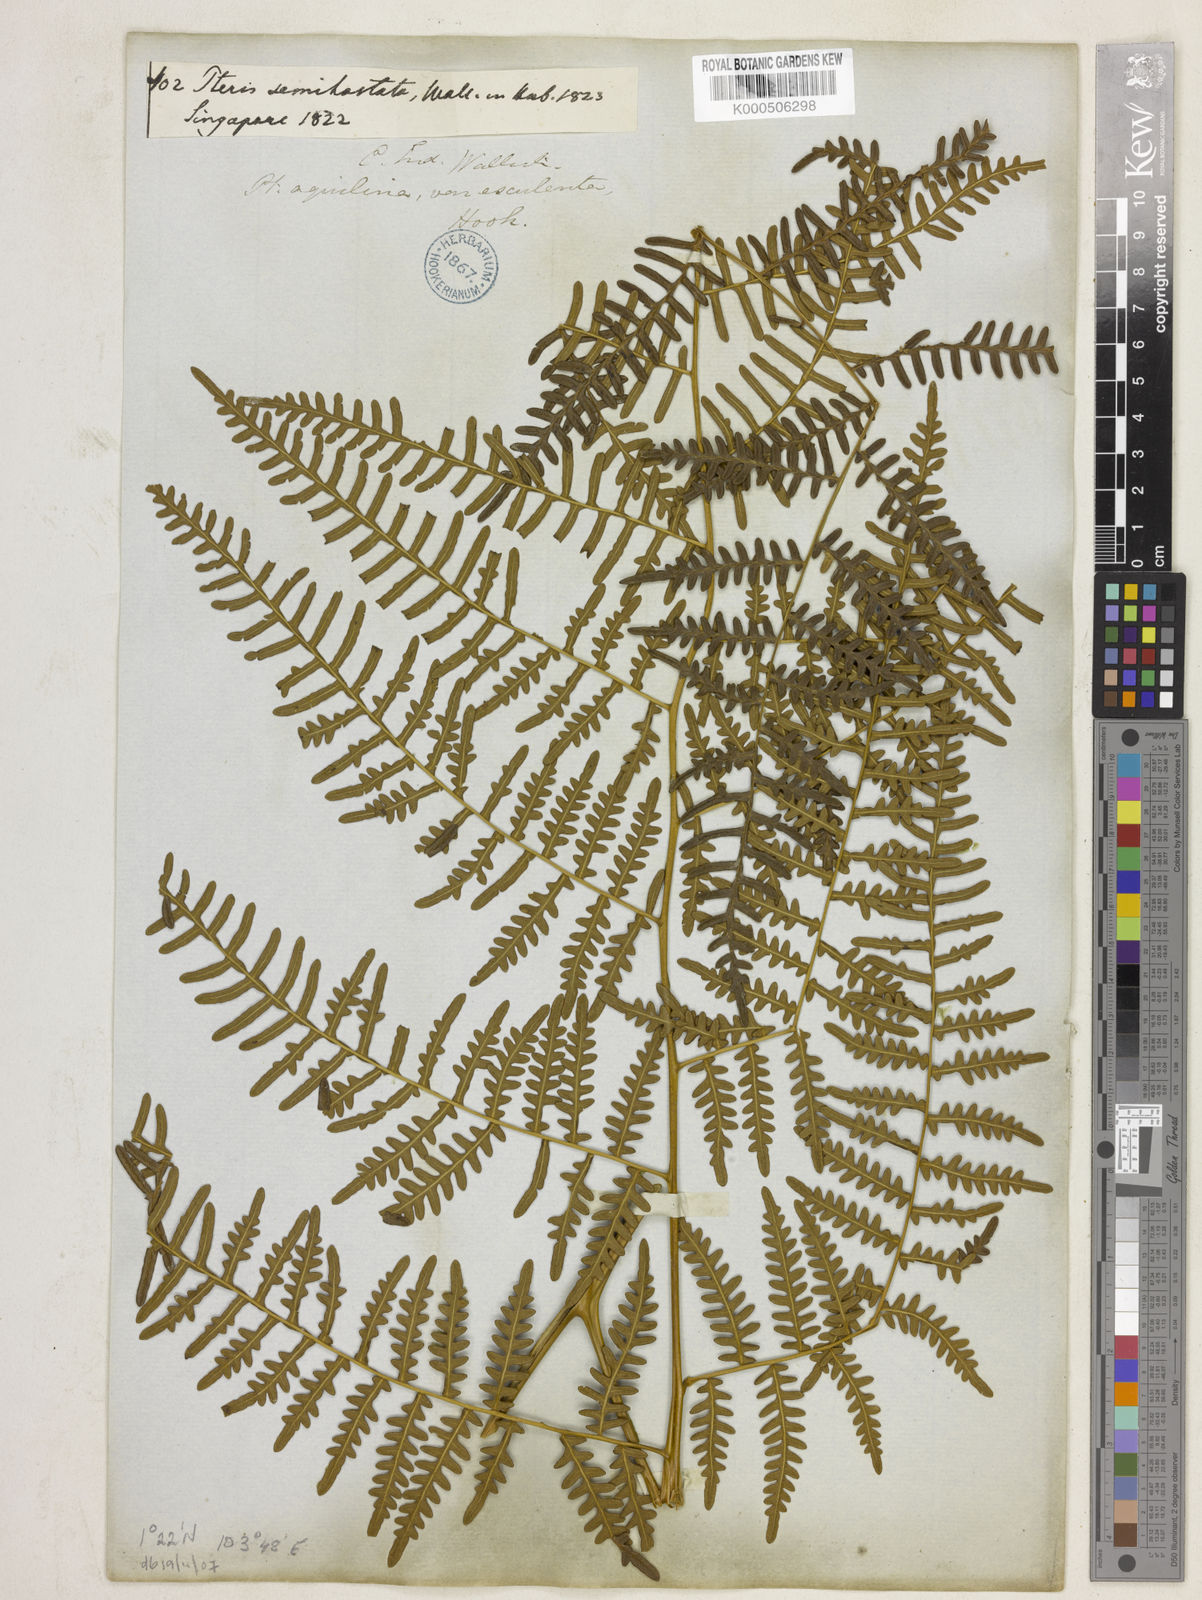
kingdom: Plantae
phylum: Tracheophyta
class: Polypodiopsida
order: Polypodiales
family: Dennstaedtiaceae
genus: Pteridium
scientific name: Pteridium rostratum
